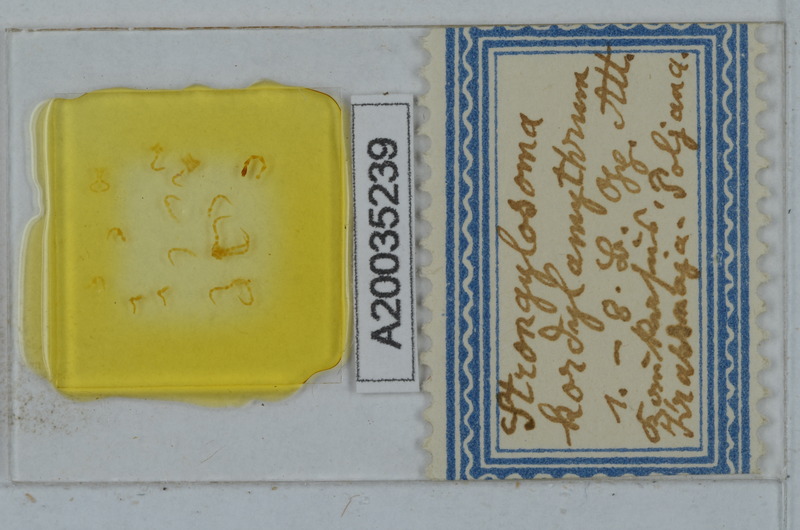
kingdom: Animalia
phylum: Arthropoda
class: Diplopoda
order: Polydesmida
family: Paradoxosomatidae
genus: Strongylosoma
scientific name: Strongylosoma kordylamythrum
